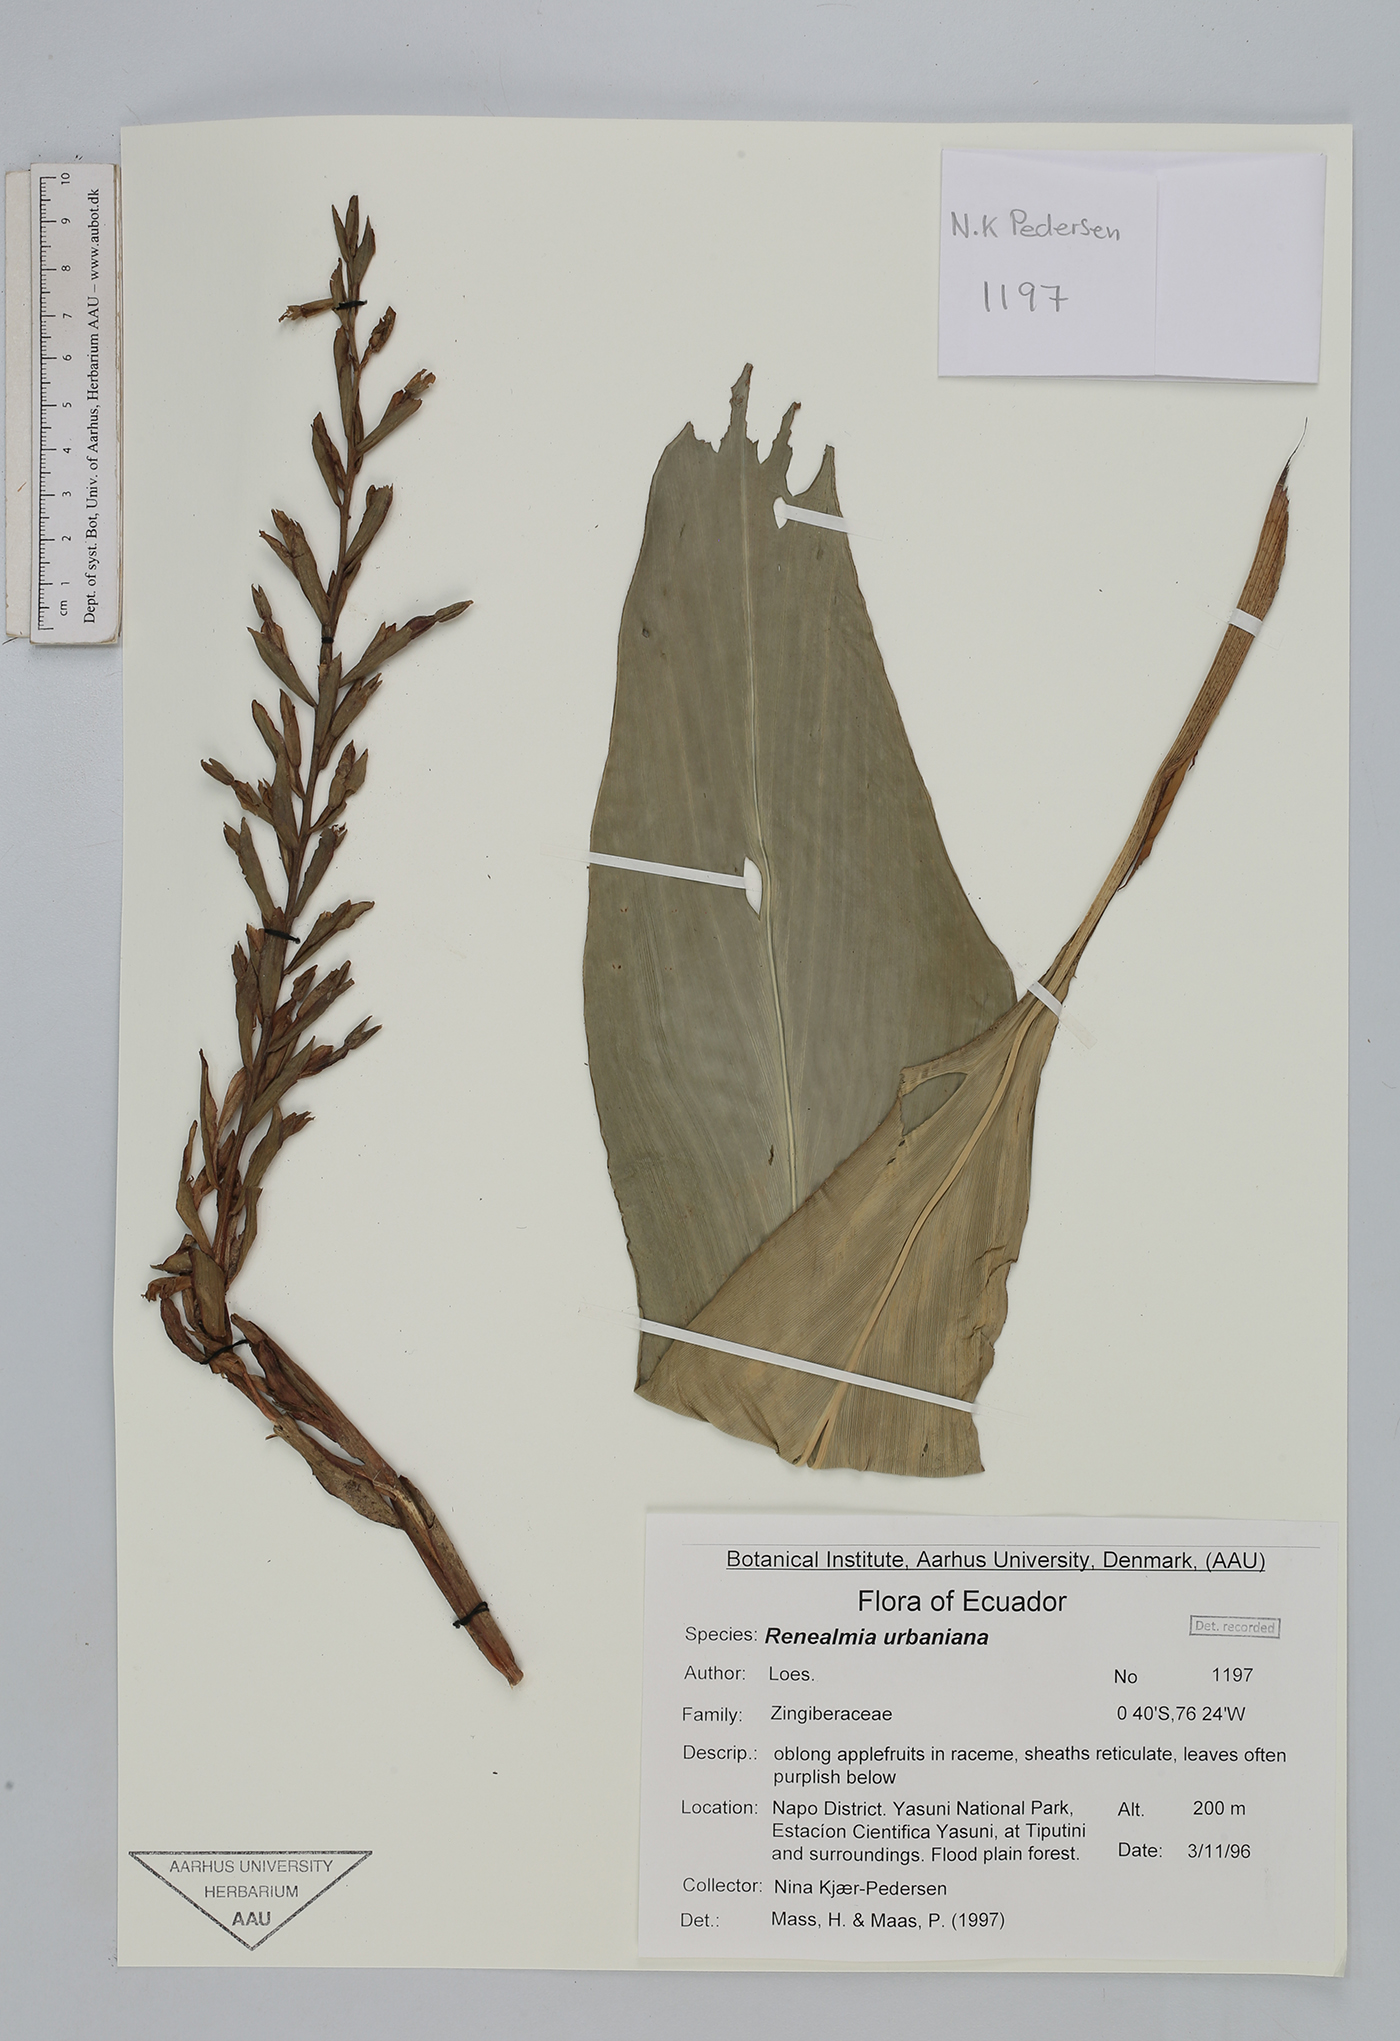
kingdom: Plantae
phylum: Tracheophyta
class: Liliopsida
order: Zingiberales
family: Zingiberaceae
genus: Renealmia
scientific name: Renealmia urbaniana
